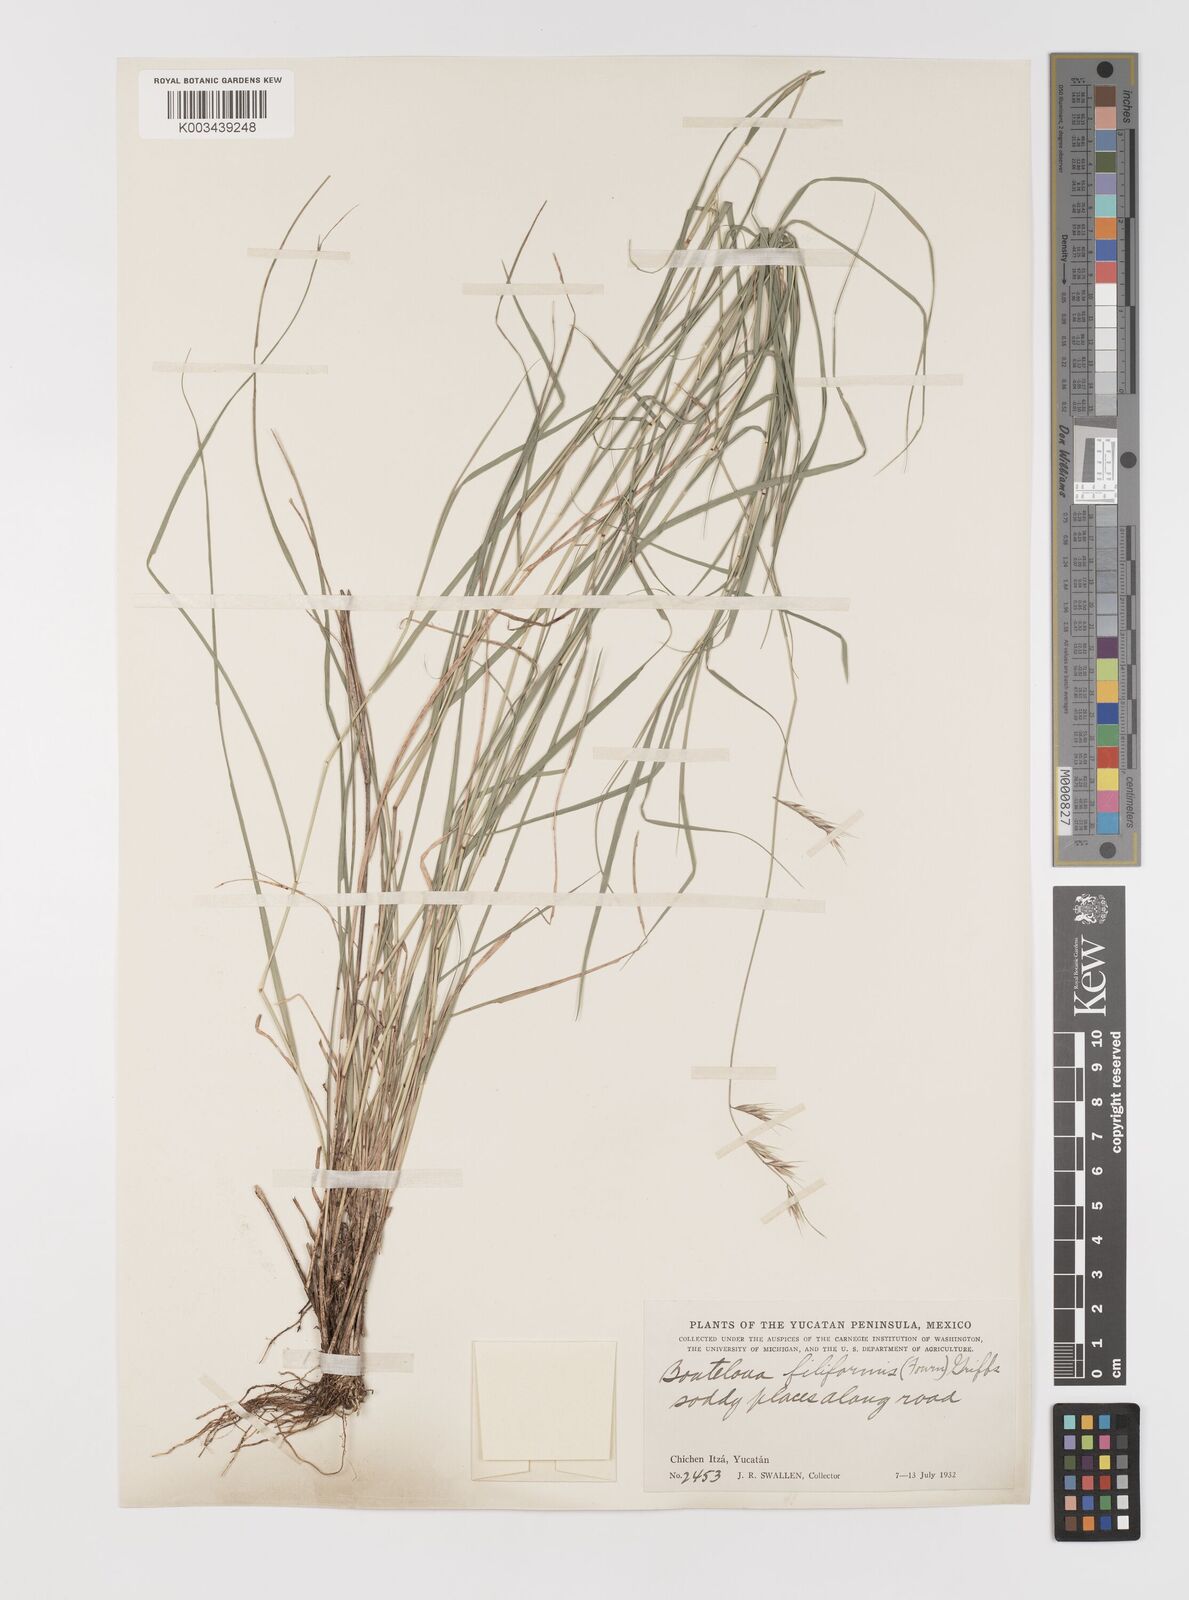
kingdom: Plantae
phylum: Tracheophyta
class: Liliopsida
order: Poales
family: Poaceae
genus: Bouteloua
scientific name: Bouteloua repens
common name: Slender grama
